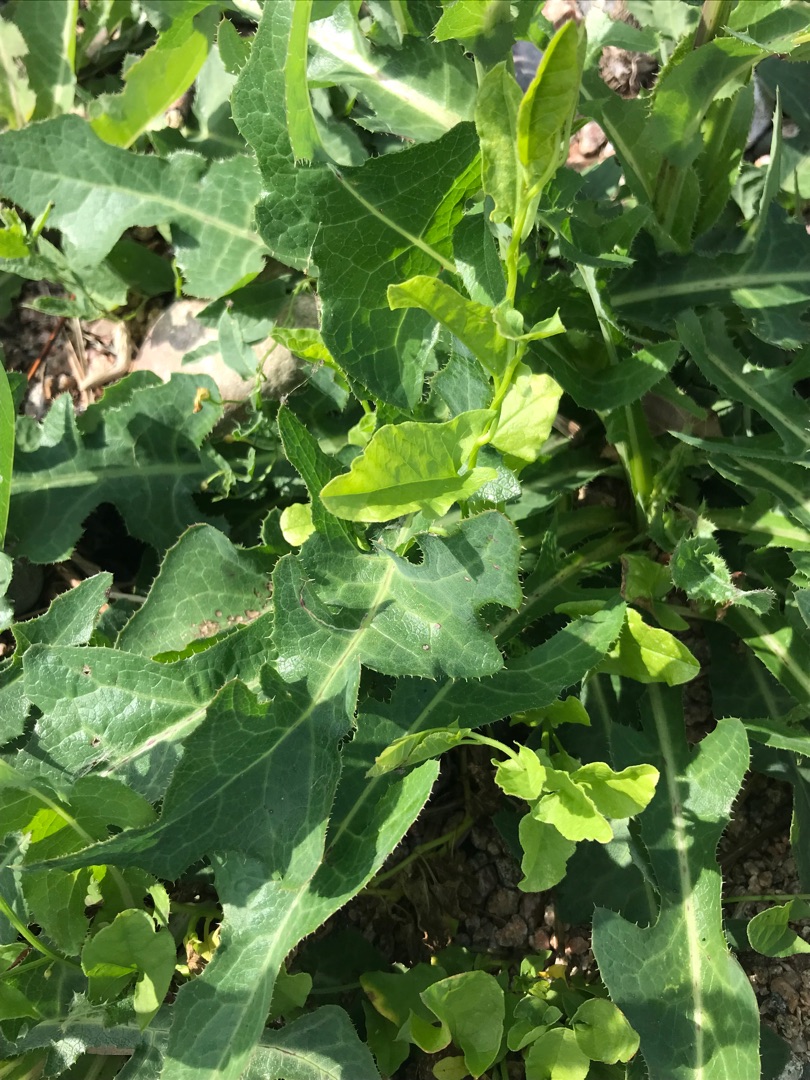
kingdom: Plantae
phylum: Tracheophyta
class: Magnoliopsida
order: Asterales
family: Asteraceae
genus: Sonchus
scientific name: Sonchus arvensis
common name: Ager-svinemælk
